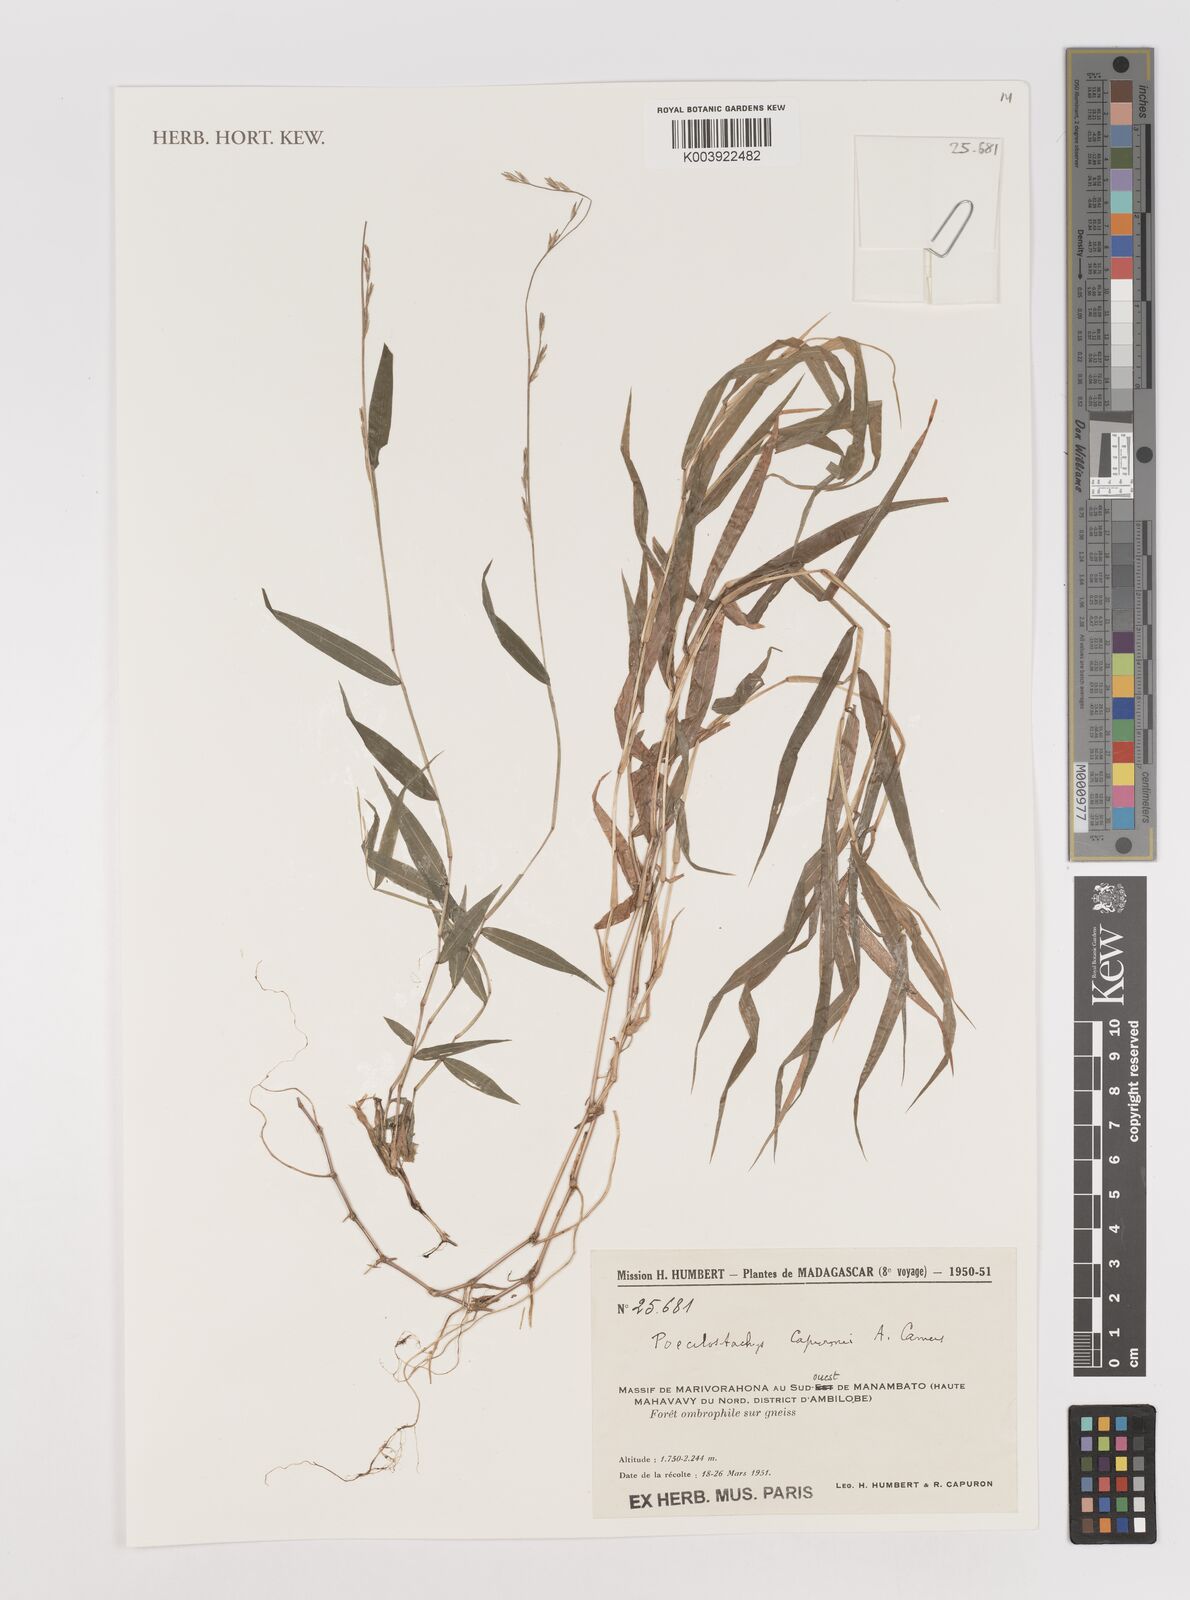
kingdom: Plantae
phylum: Tracheophyta
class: Liliopsida
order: Poales
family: Poaceae
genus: Poecilostachys
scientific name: Poecilostachys hildebrandtii
